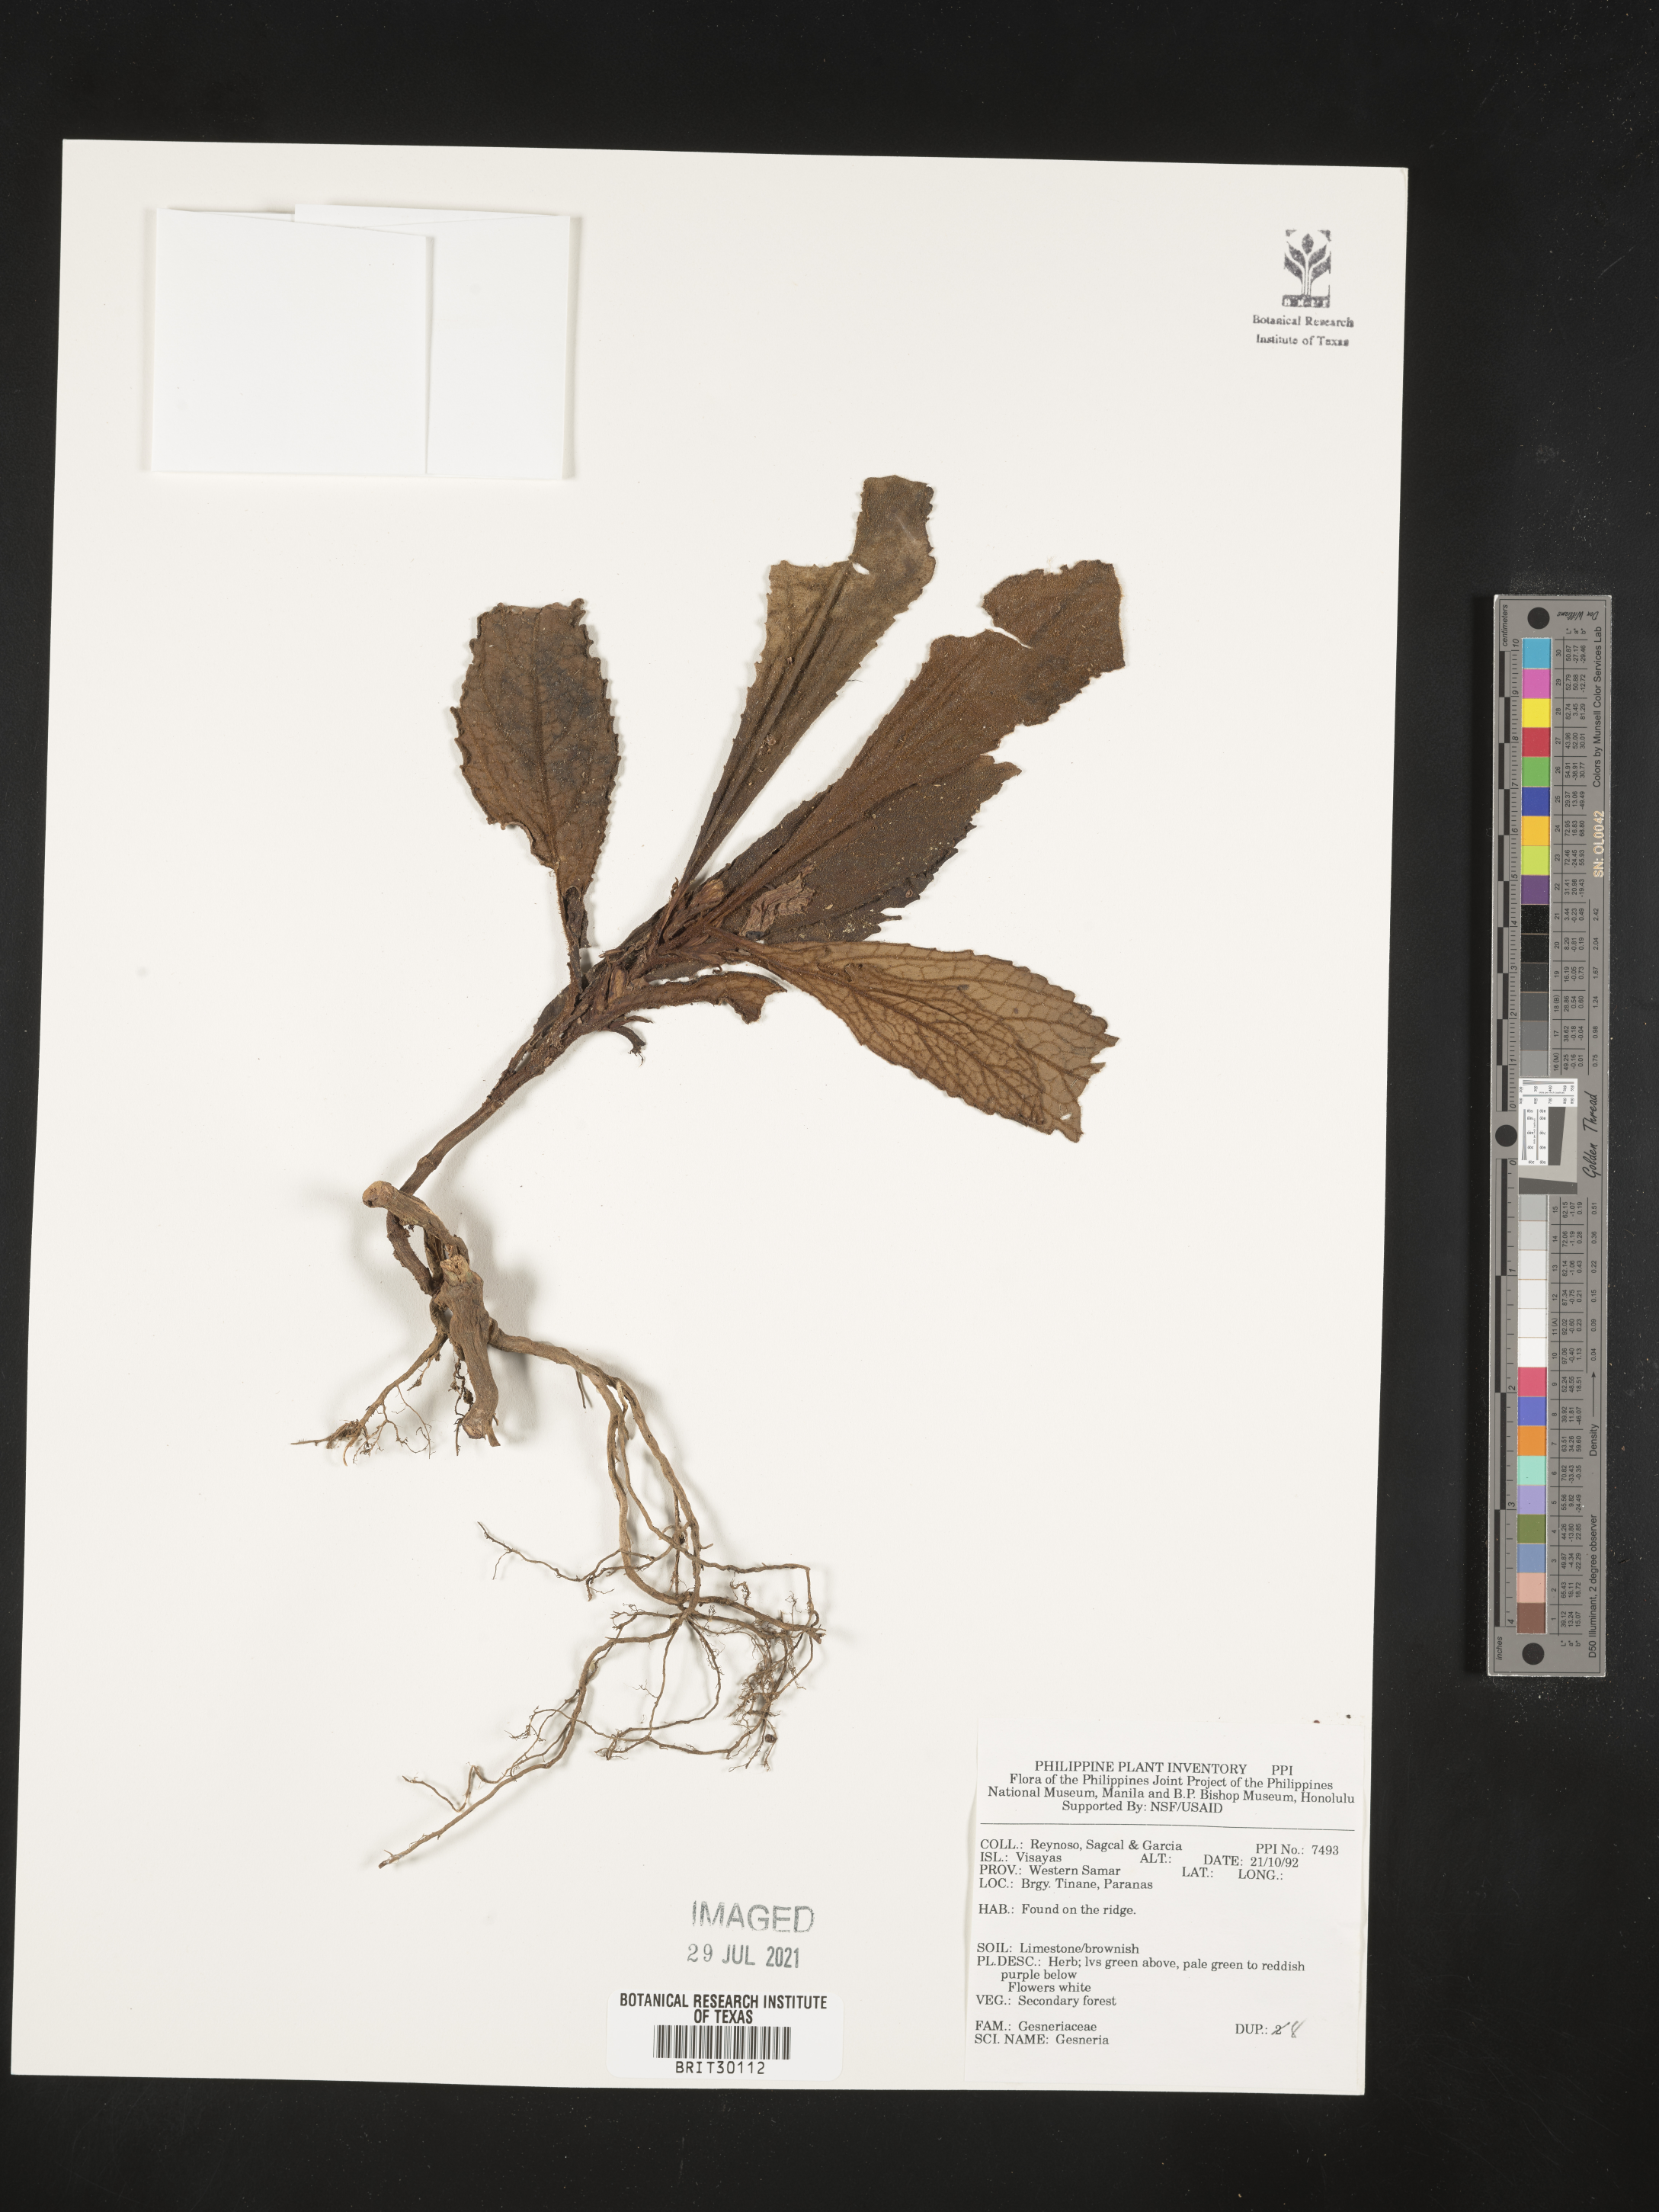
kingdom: Plantae
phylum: Tracheophyta
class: Magnoliopsida
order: Lamiales
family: Gesneriaceae
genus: Gesneria
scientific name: Gesneria
